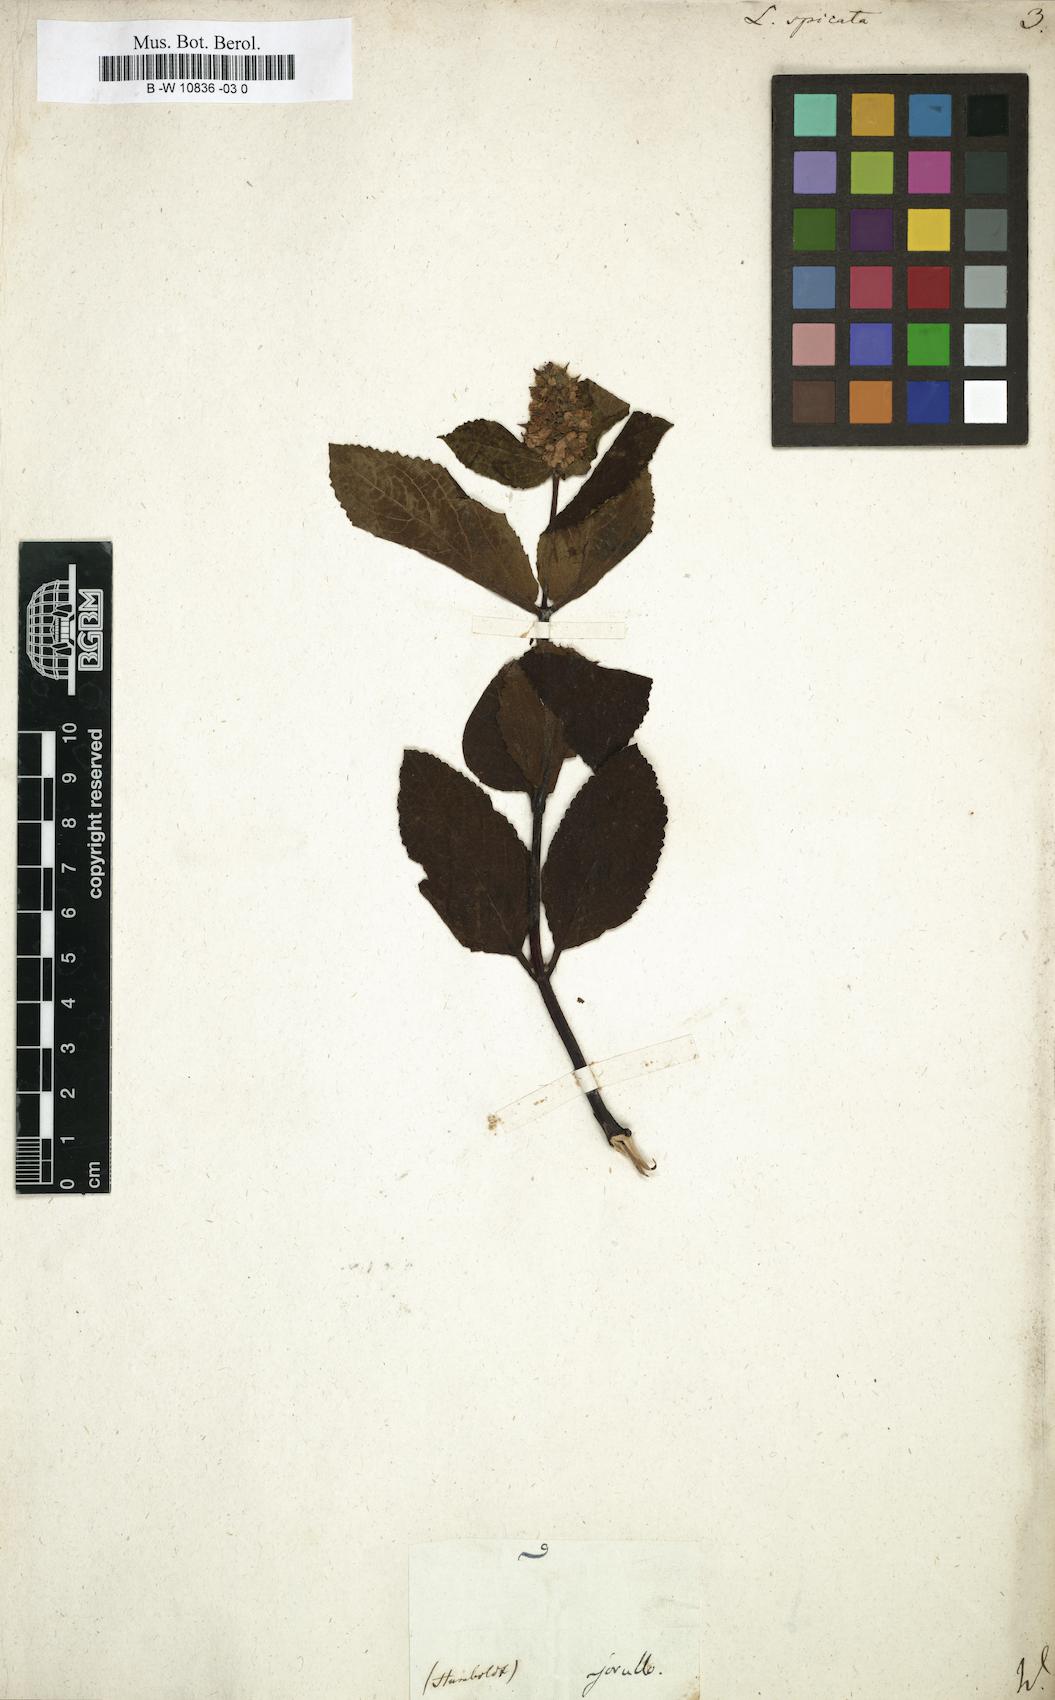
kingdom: Plantae
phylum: Tracheophyta
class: Magnoliopsida
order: Lamiales
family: Lamiaceae
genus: Lepechinia
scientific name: Lepechinia caulescens
